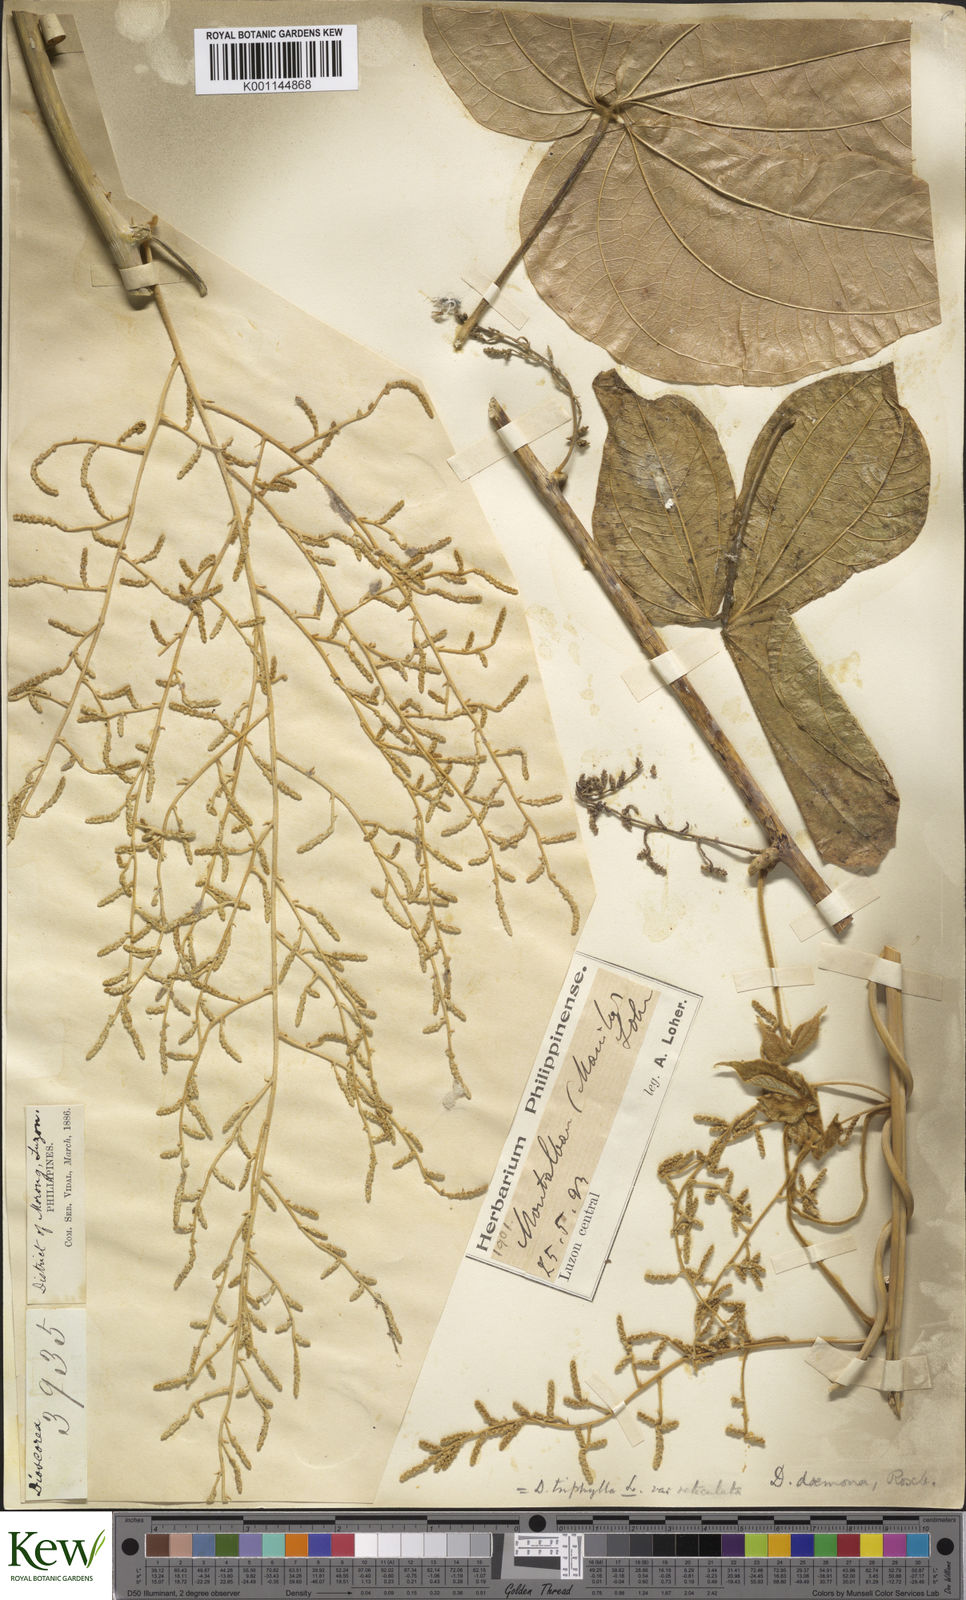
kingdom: Plantae
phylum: Tracheophyta
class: Liliopsida
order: Dioscoreales
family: Dioscoreaceae
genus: Dioscorea
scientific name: Dioscorea hispida
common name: Asiatic bitter yam
